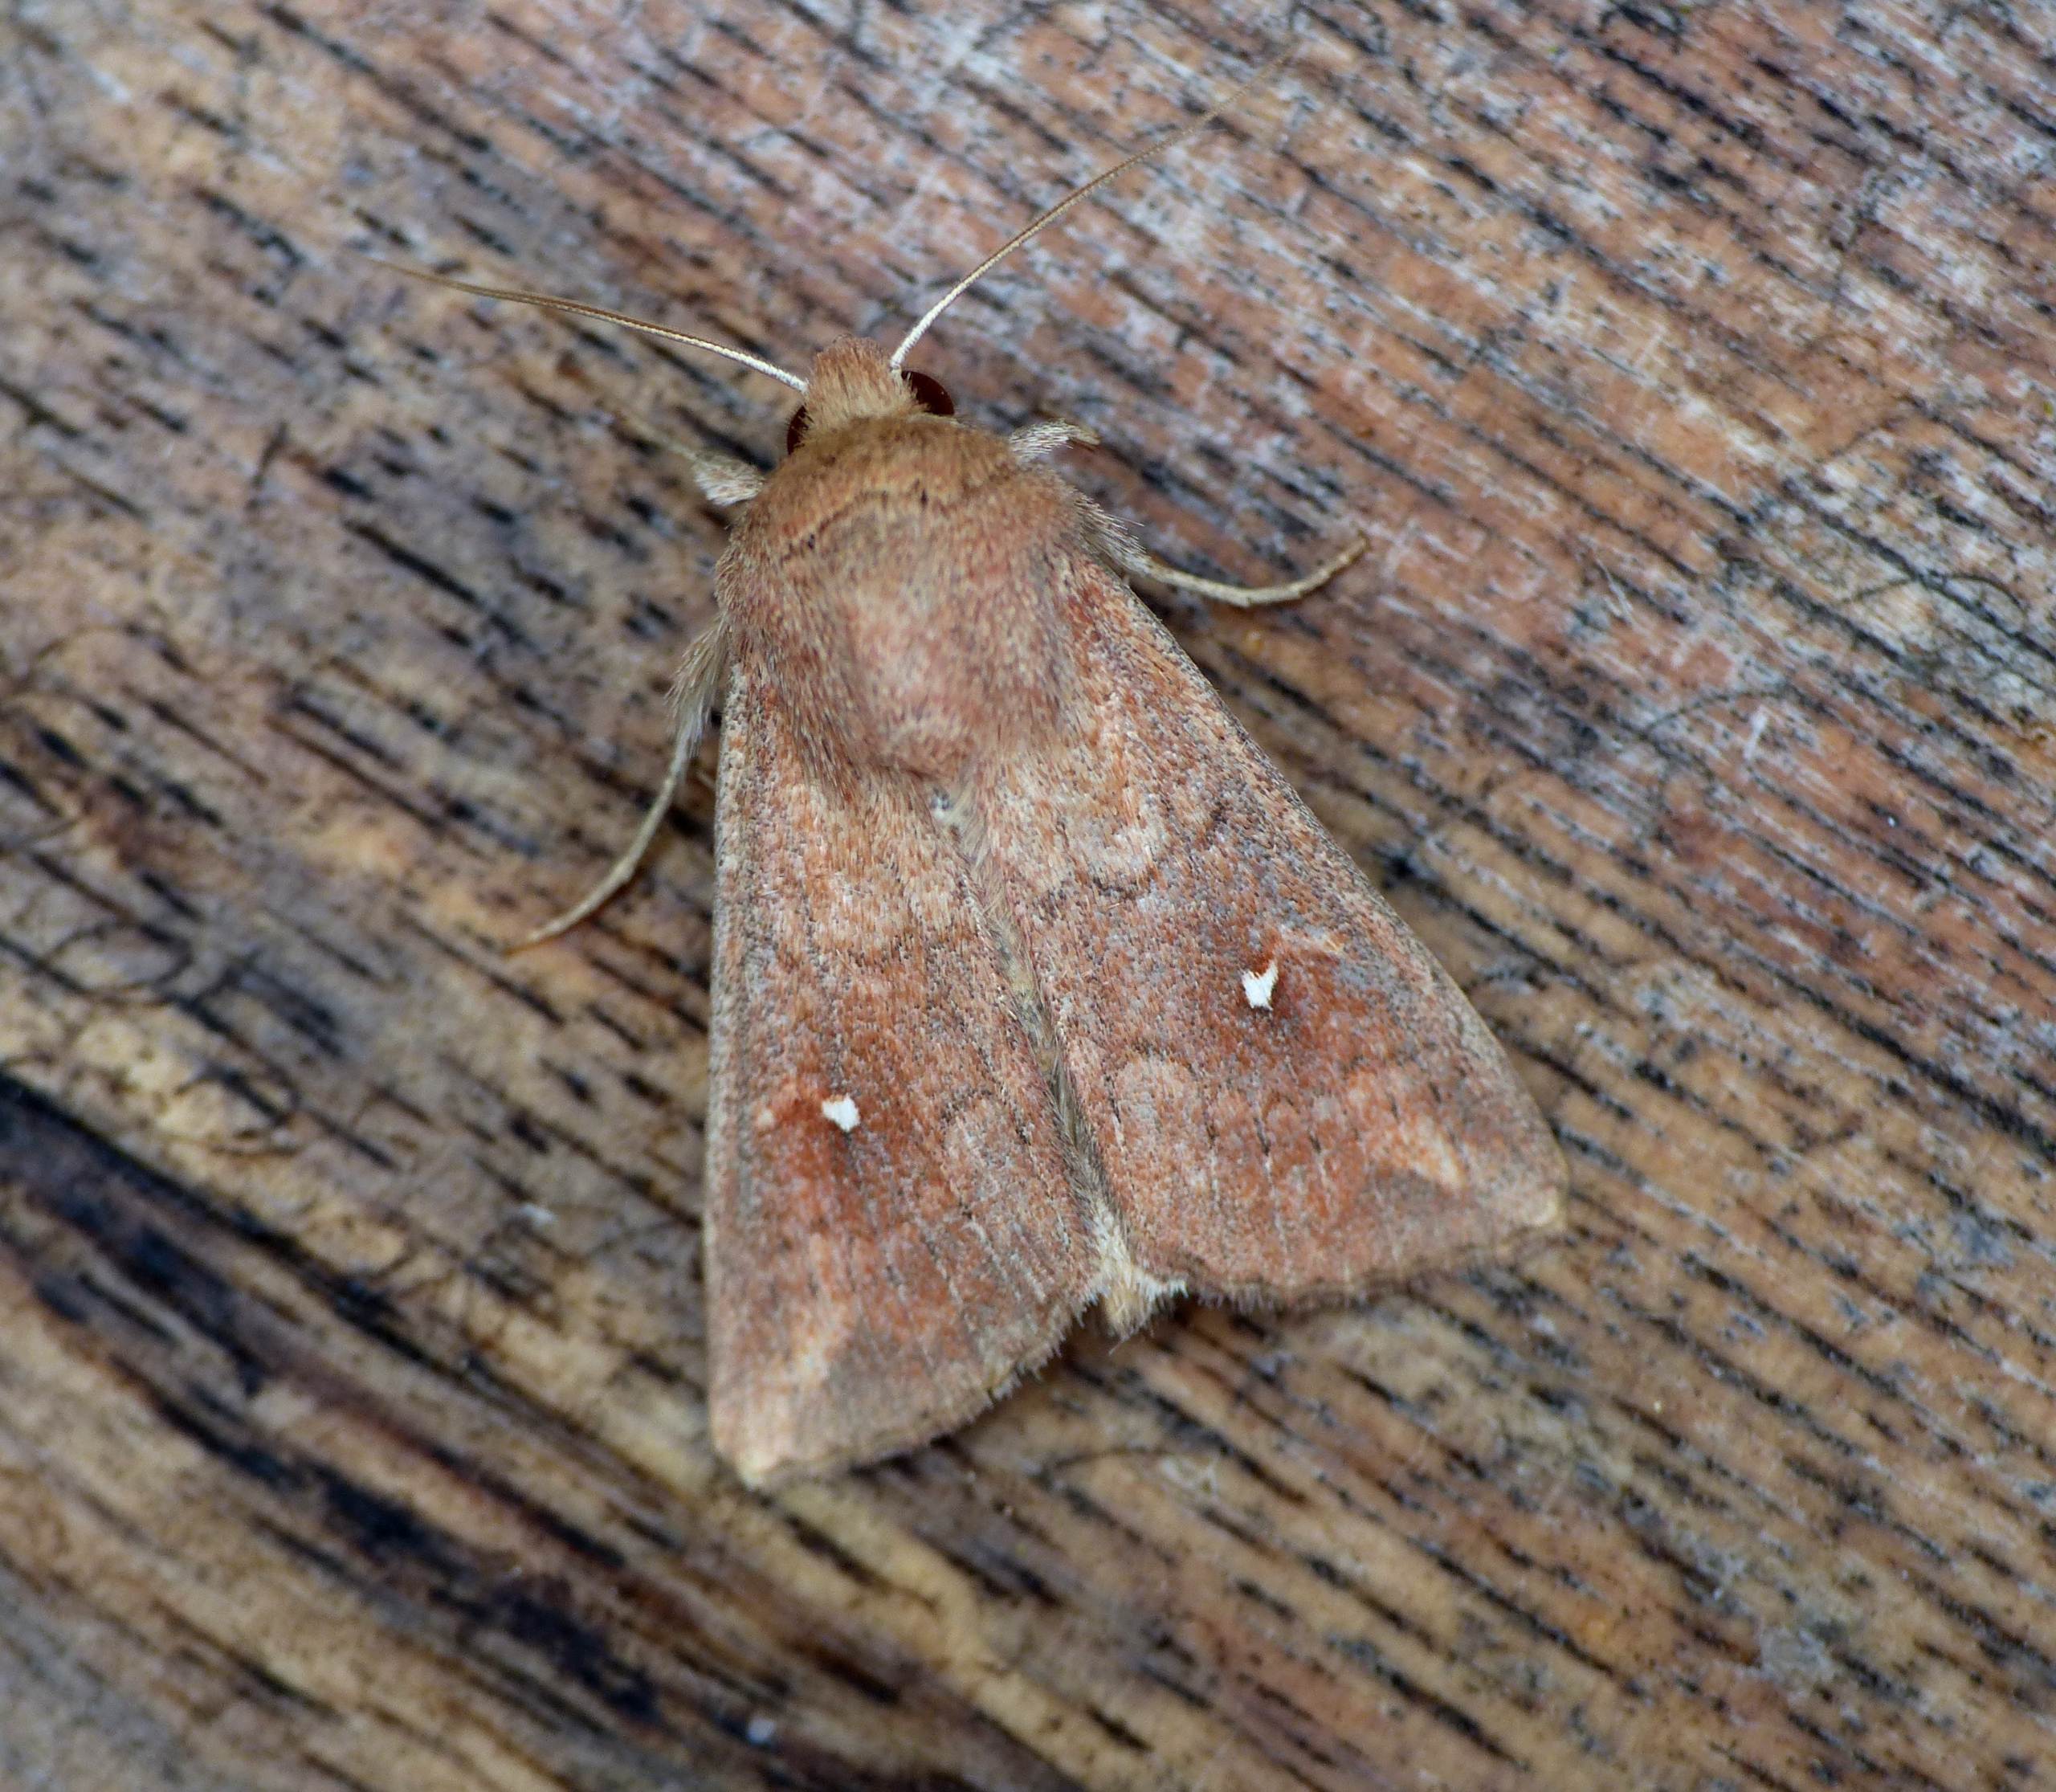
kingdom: Animalia
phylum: Arthropoda
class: Insecta
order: Lepidoptera
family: Noctuidae
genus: Mythimna
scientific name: Mythimna albipuncta
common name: Hvid-punkt græsugle
